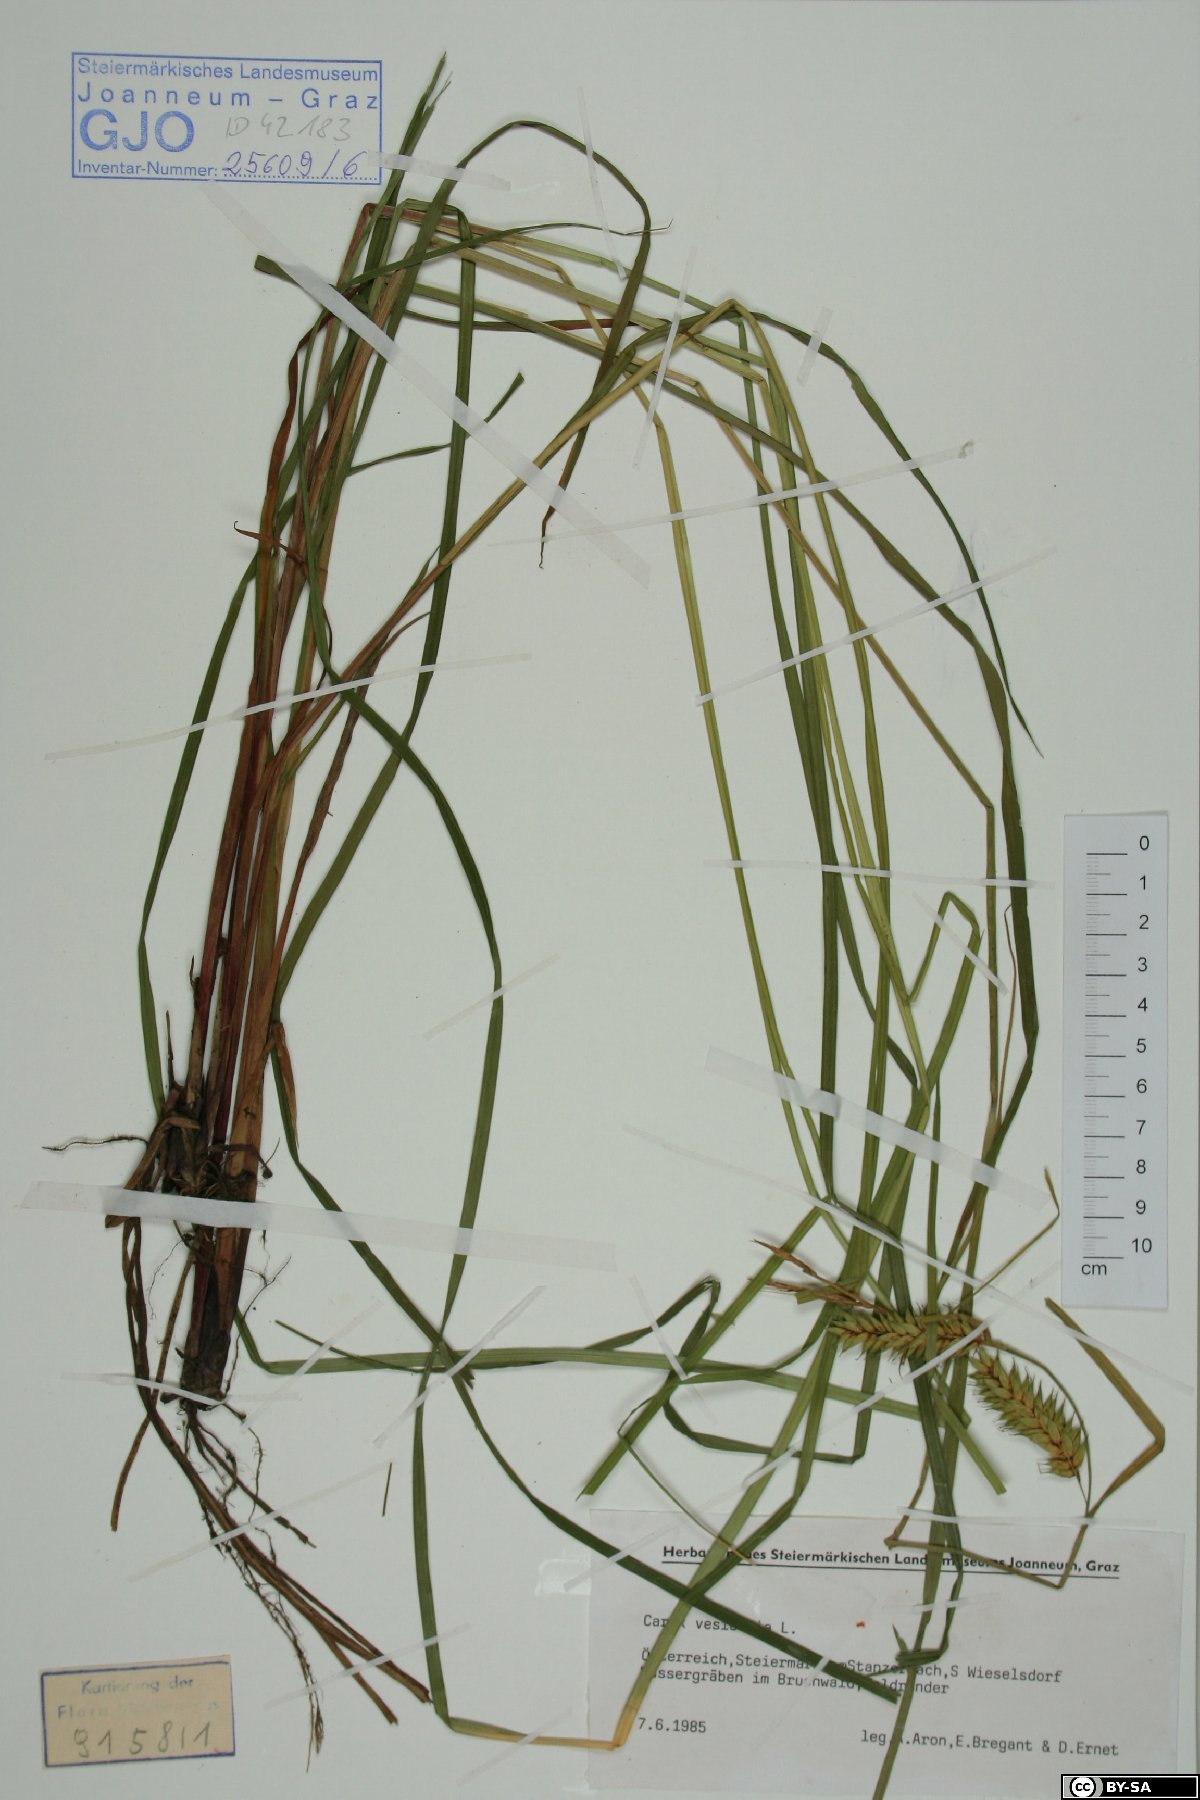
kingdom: Plantae
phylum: Tracheophyta
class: Liliopsida
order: Poales
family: Cyperaceae
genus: Carex
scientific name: Carex vesicaria
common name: Bladder-sedge
